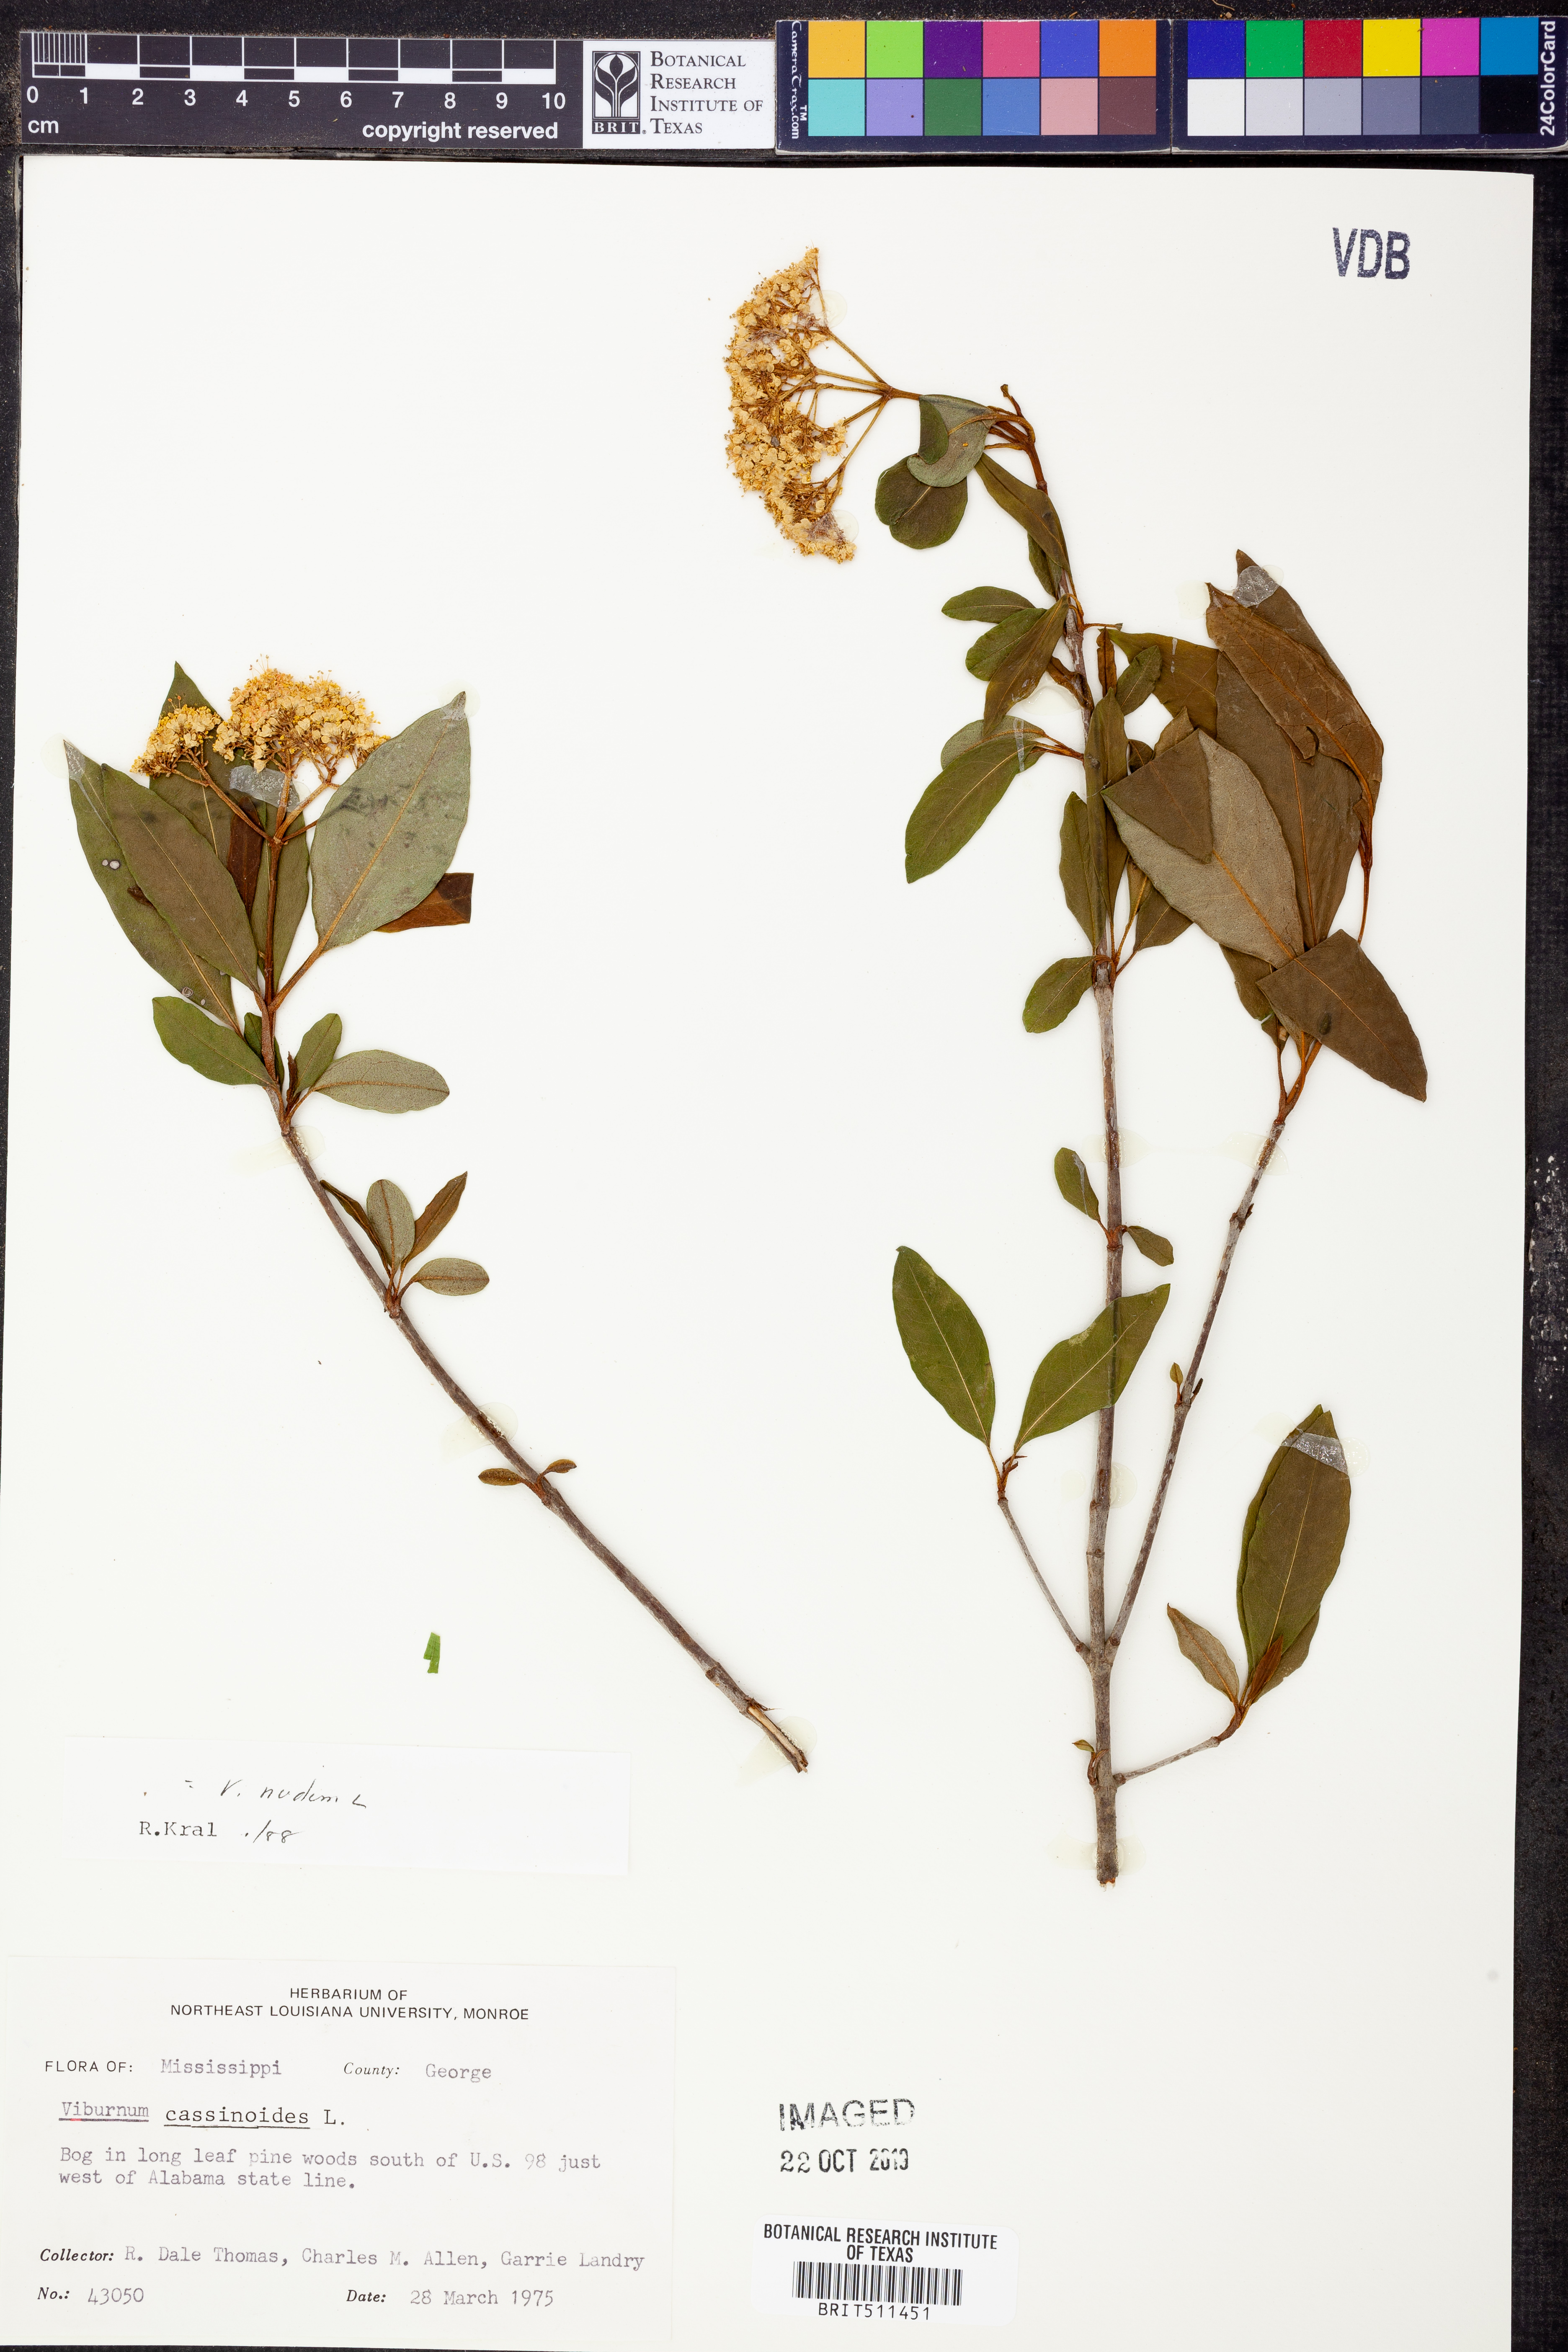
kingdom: Plantae
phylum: Tracheophyta
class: Magnoliopsida
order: Dipsacales
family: Viburnaceae
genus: Viburnum
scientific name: Viburnum nudum
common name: Possum haw
